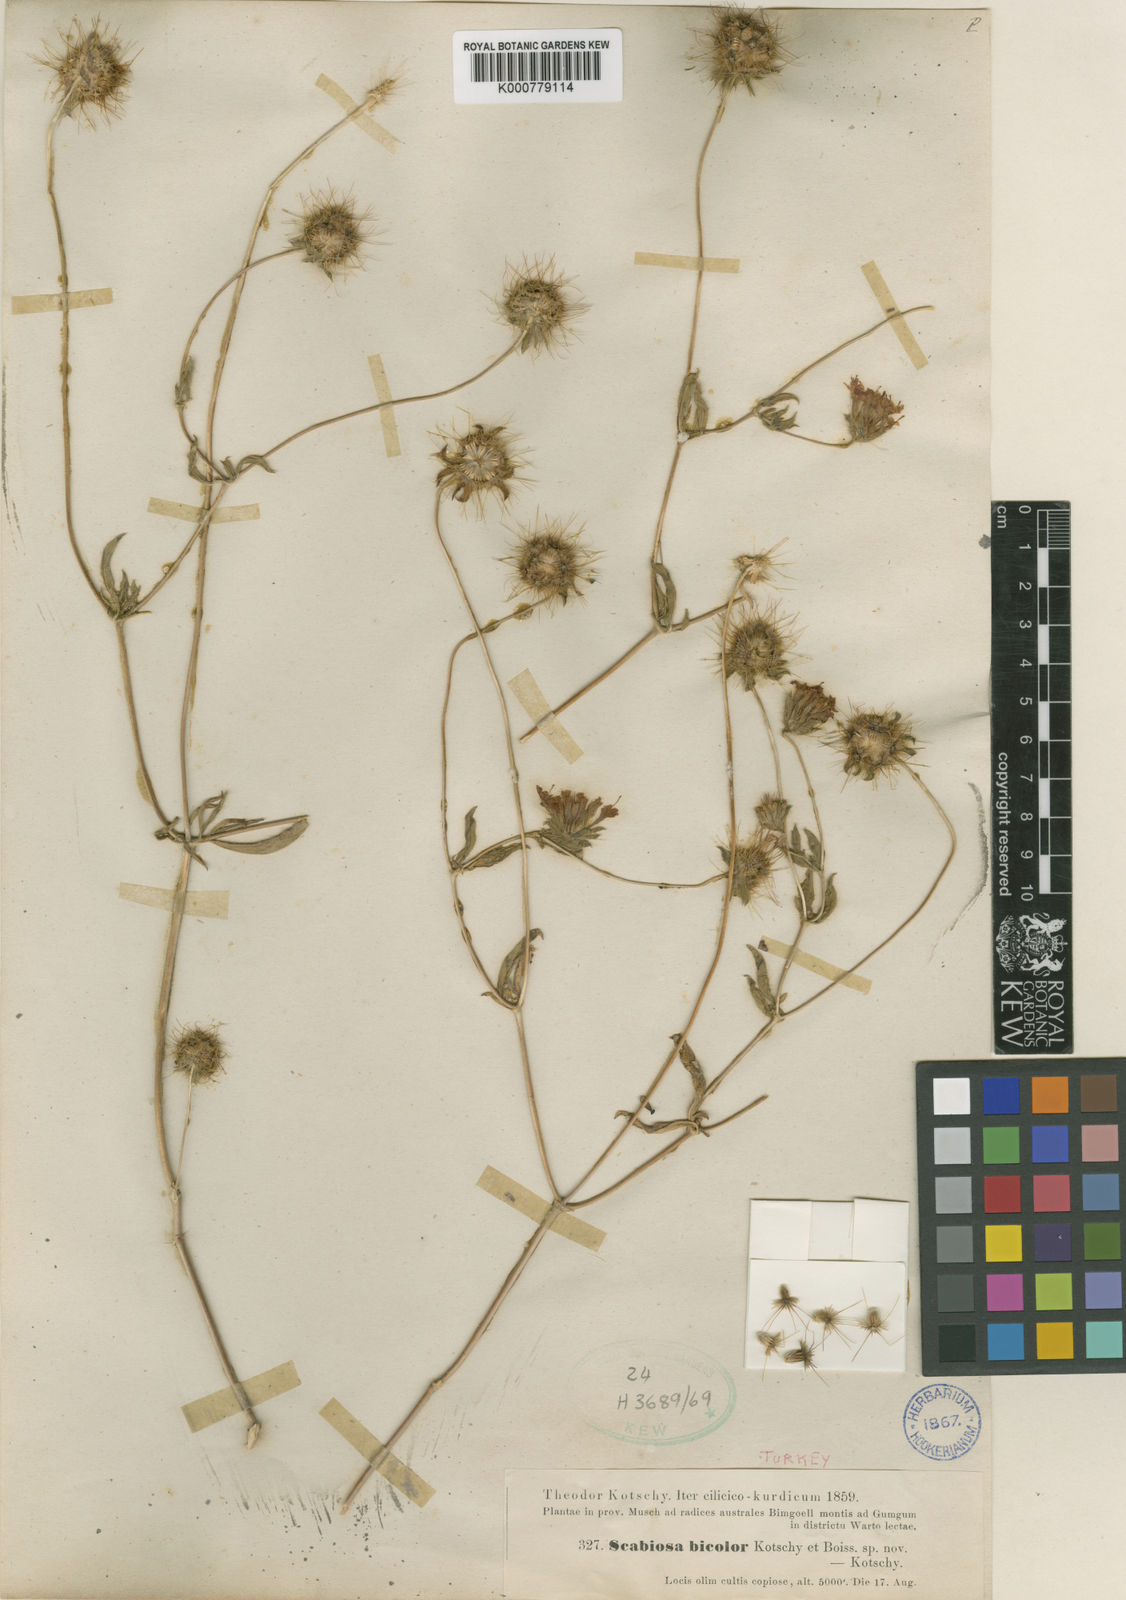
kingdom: Plantae
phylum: Tracheophyta
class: Magnoliopsida
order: Dipsacales
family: Caprifoliaceae
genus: Lomelosia
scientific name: Lomelosia bicolor
